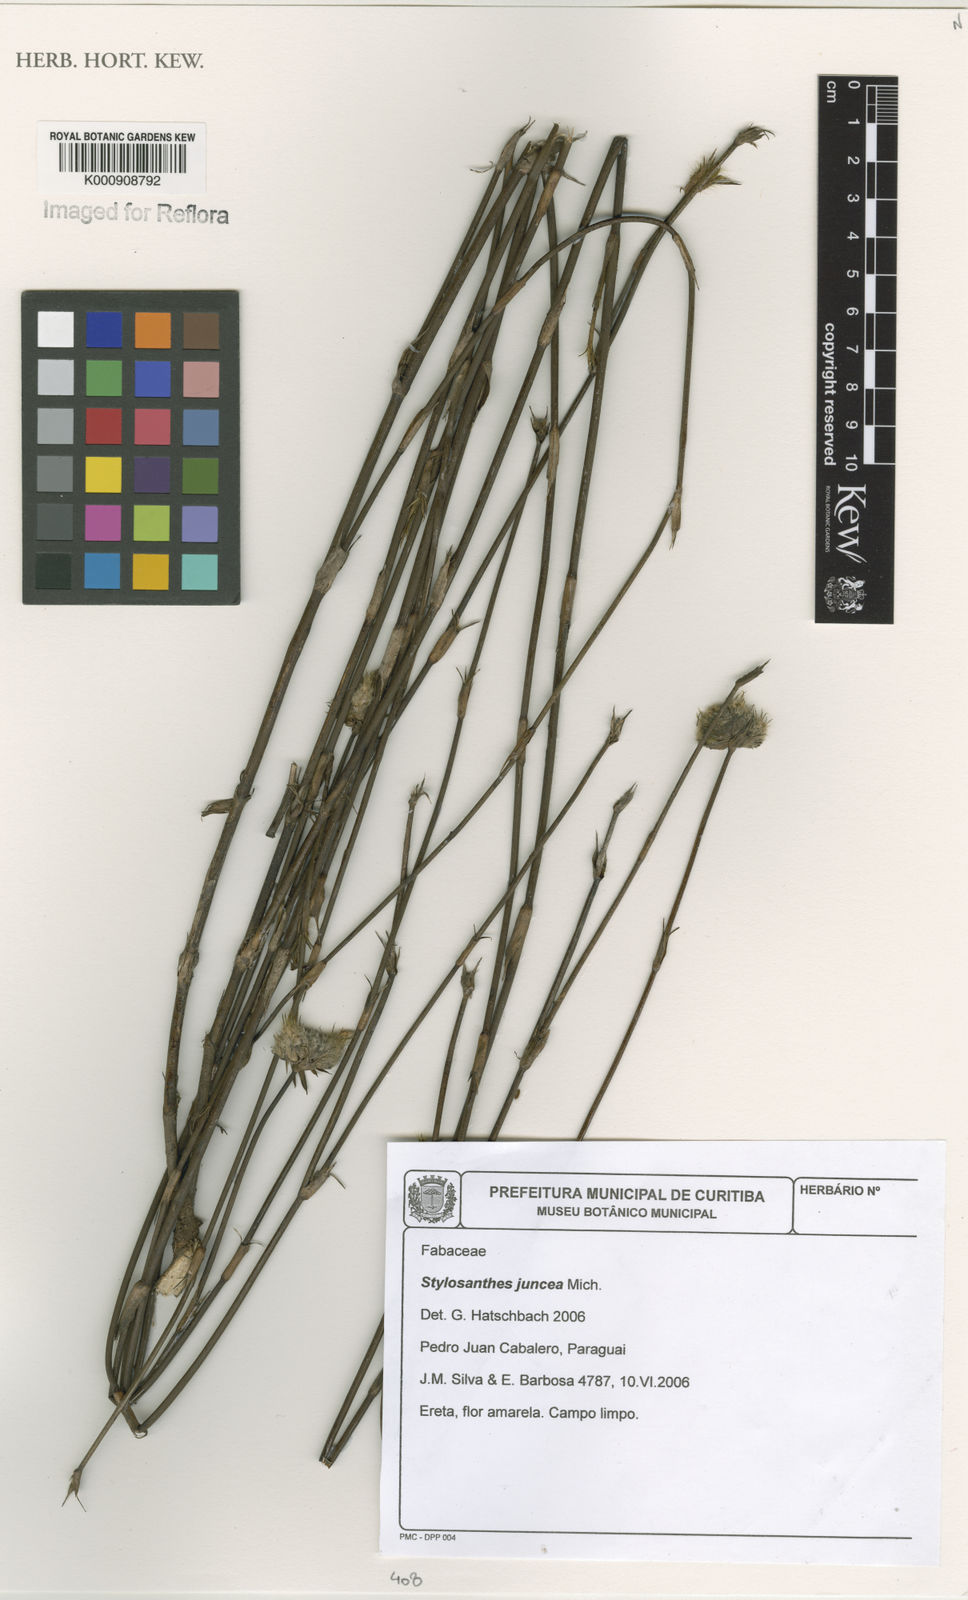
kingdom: Plantae
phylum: Tracheophyta
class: Magnoliopsida
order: Fabales
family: Fabaceae
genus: Stylosanthes
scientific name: Stylosanthes montevidensis
